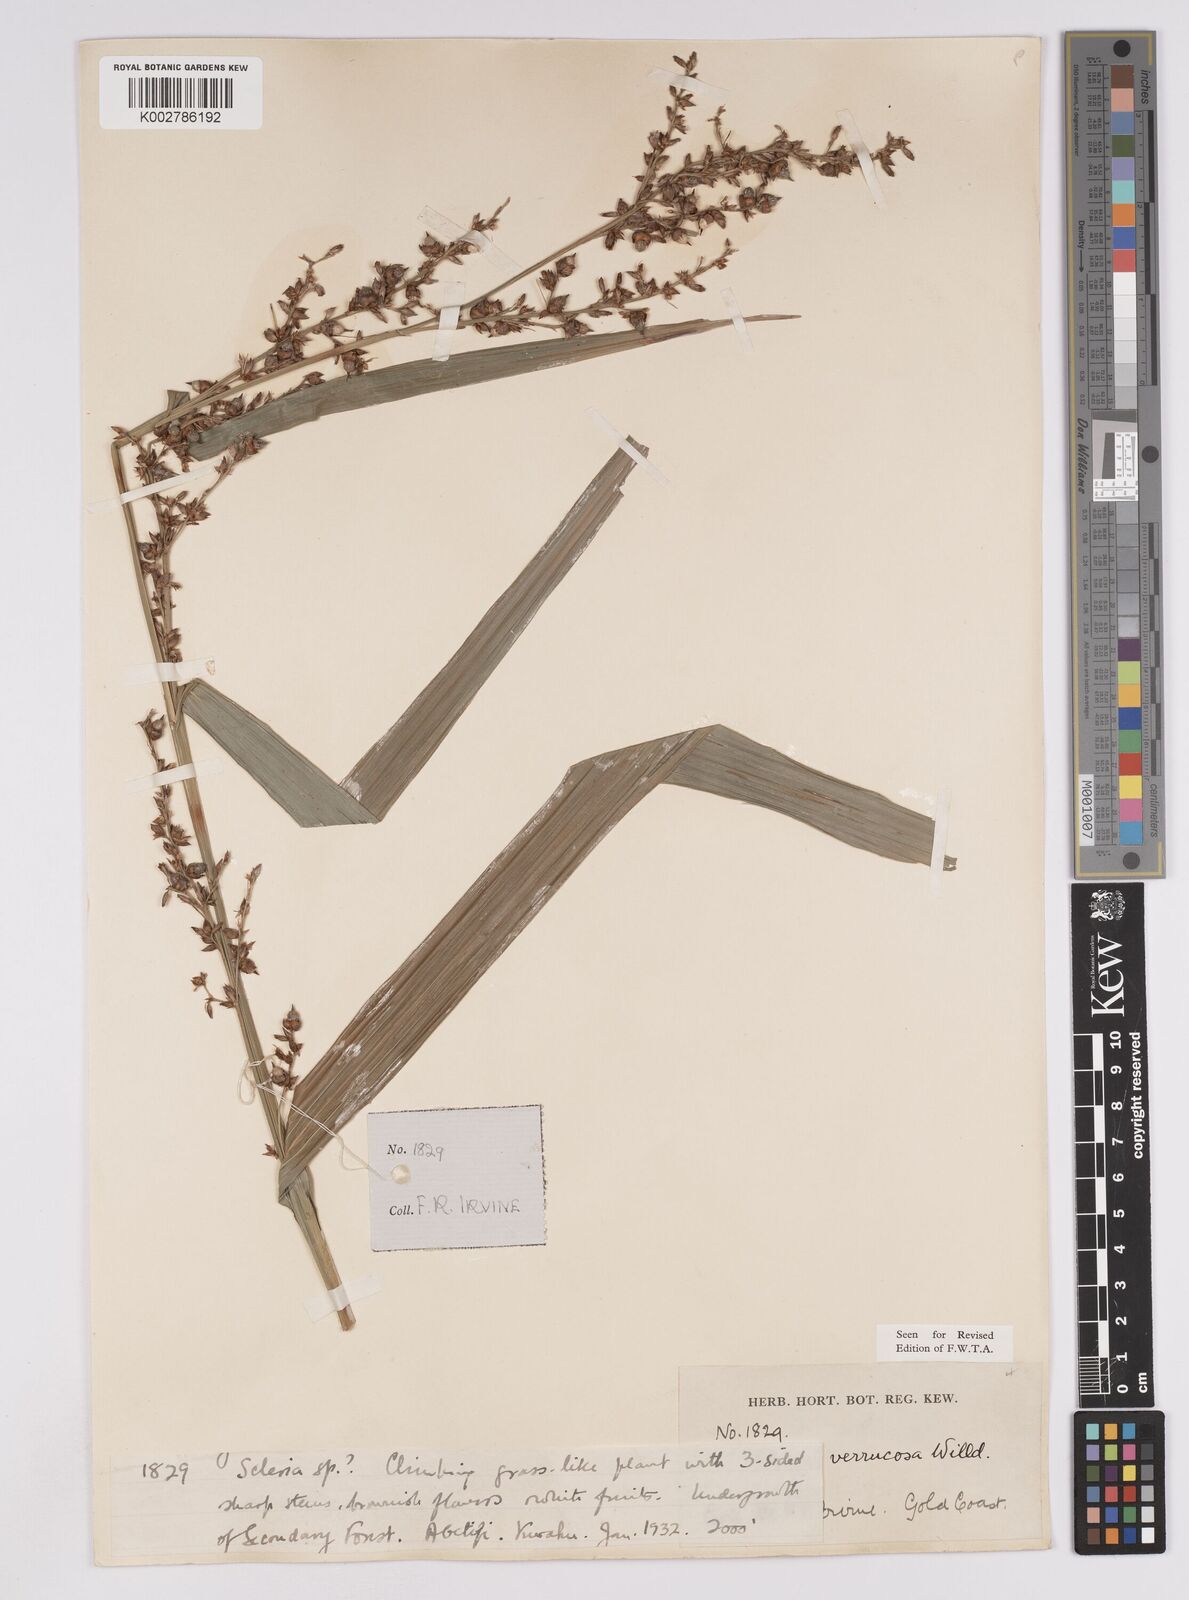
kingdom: Plantae
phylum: Tracheophyta
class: Liliopsida
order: Poales
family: Cyperaceae
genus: Scleria
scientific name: Scleria verrucosa
